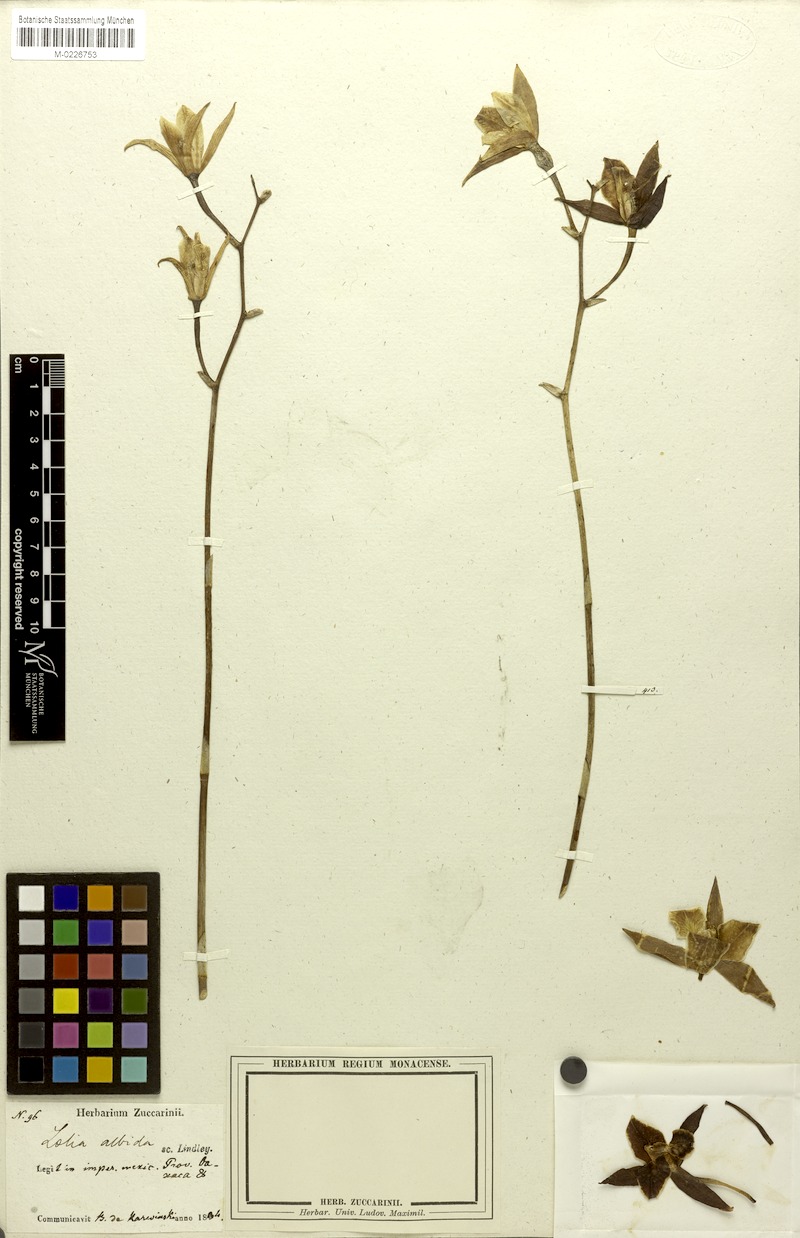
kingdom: Plantae
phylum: Tracheophyta
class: Liliopsida
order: Asparagales
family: Orchidaceae
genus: Laelia
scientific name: Laelia albida
